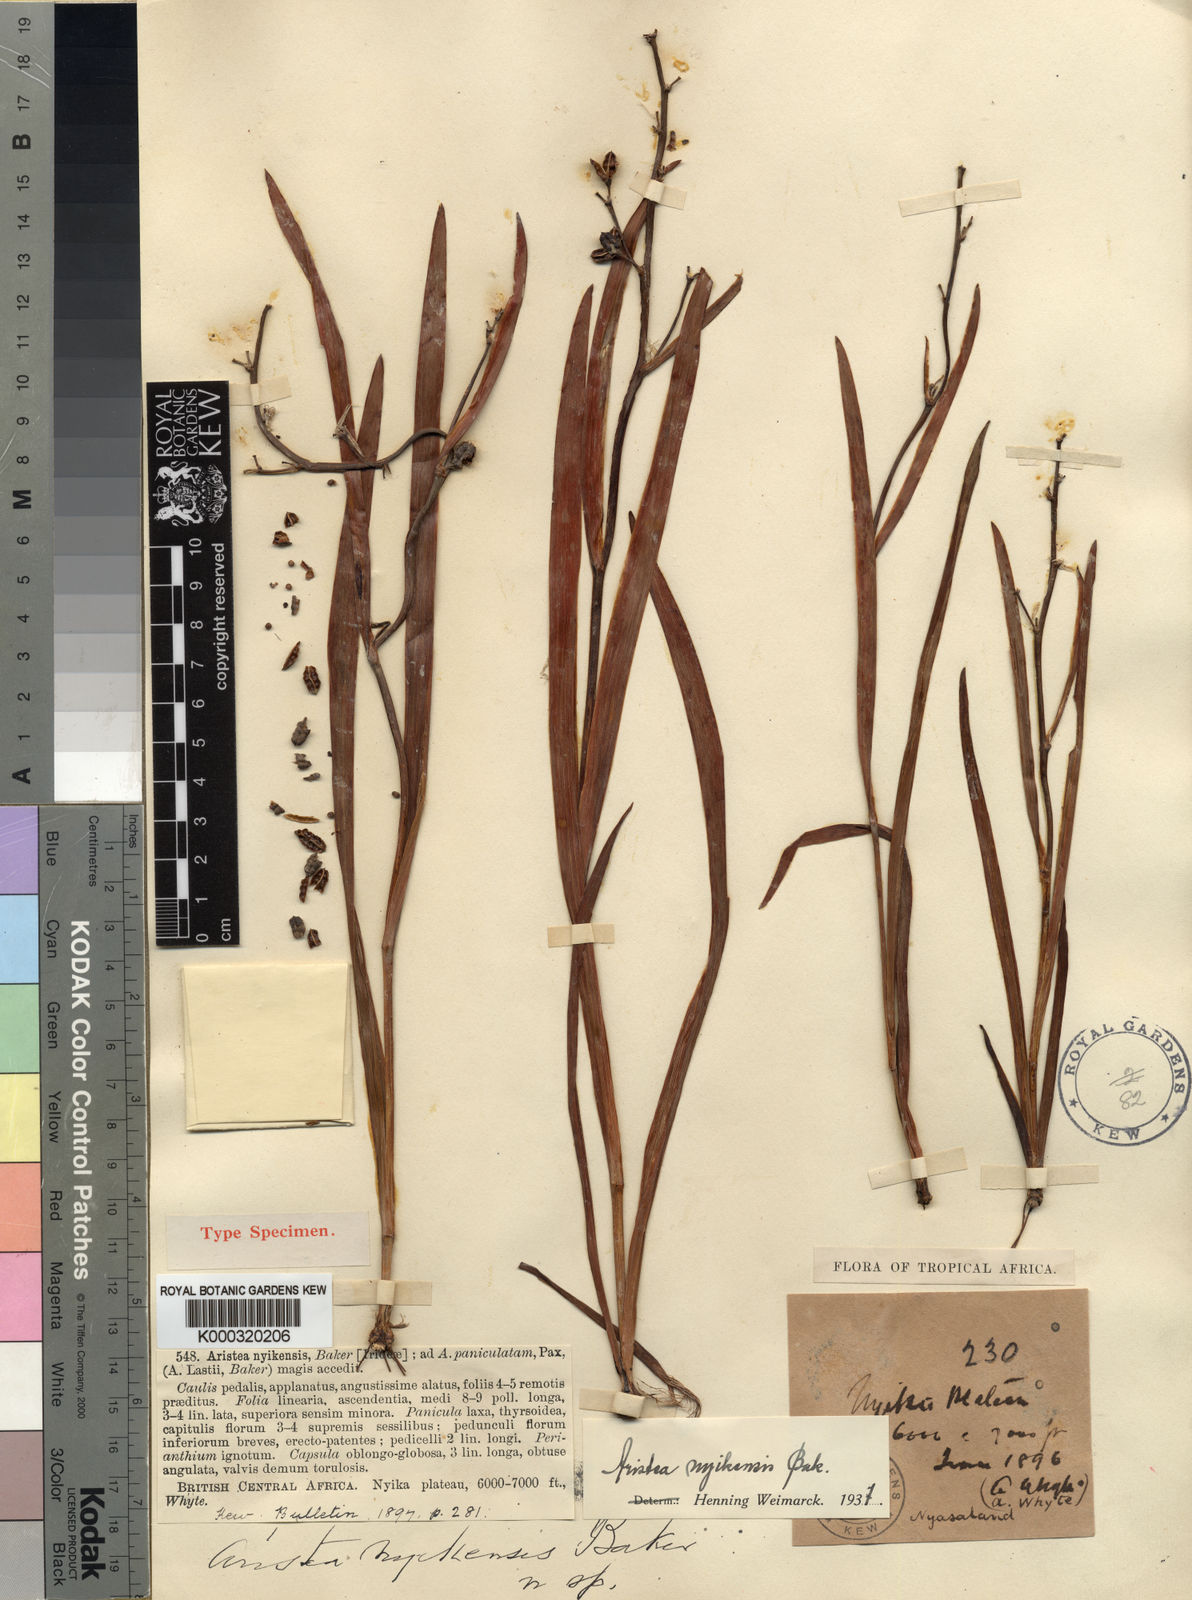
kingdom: Plantae
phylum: Tracheophyta
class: Liliopsida
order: Asparagales
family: Iridaceae
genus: Aristea
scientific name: Aristea nyikensis
